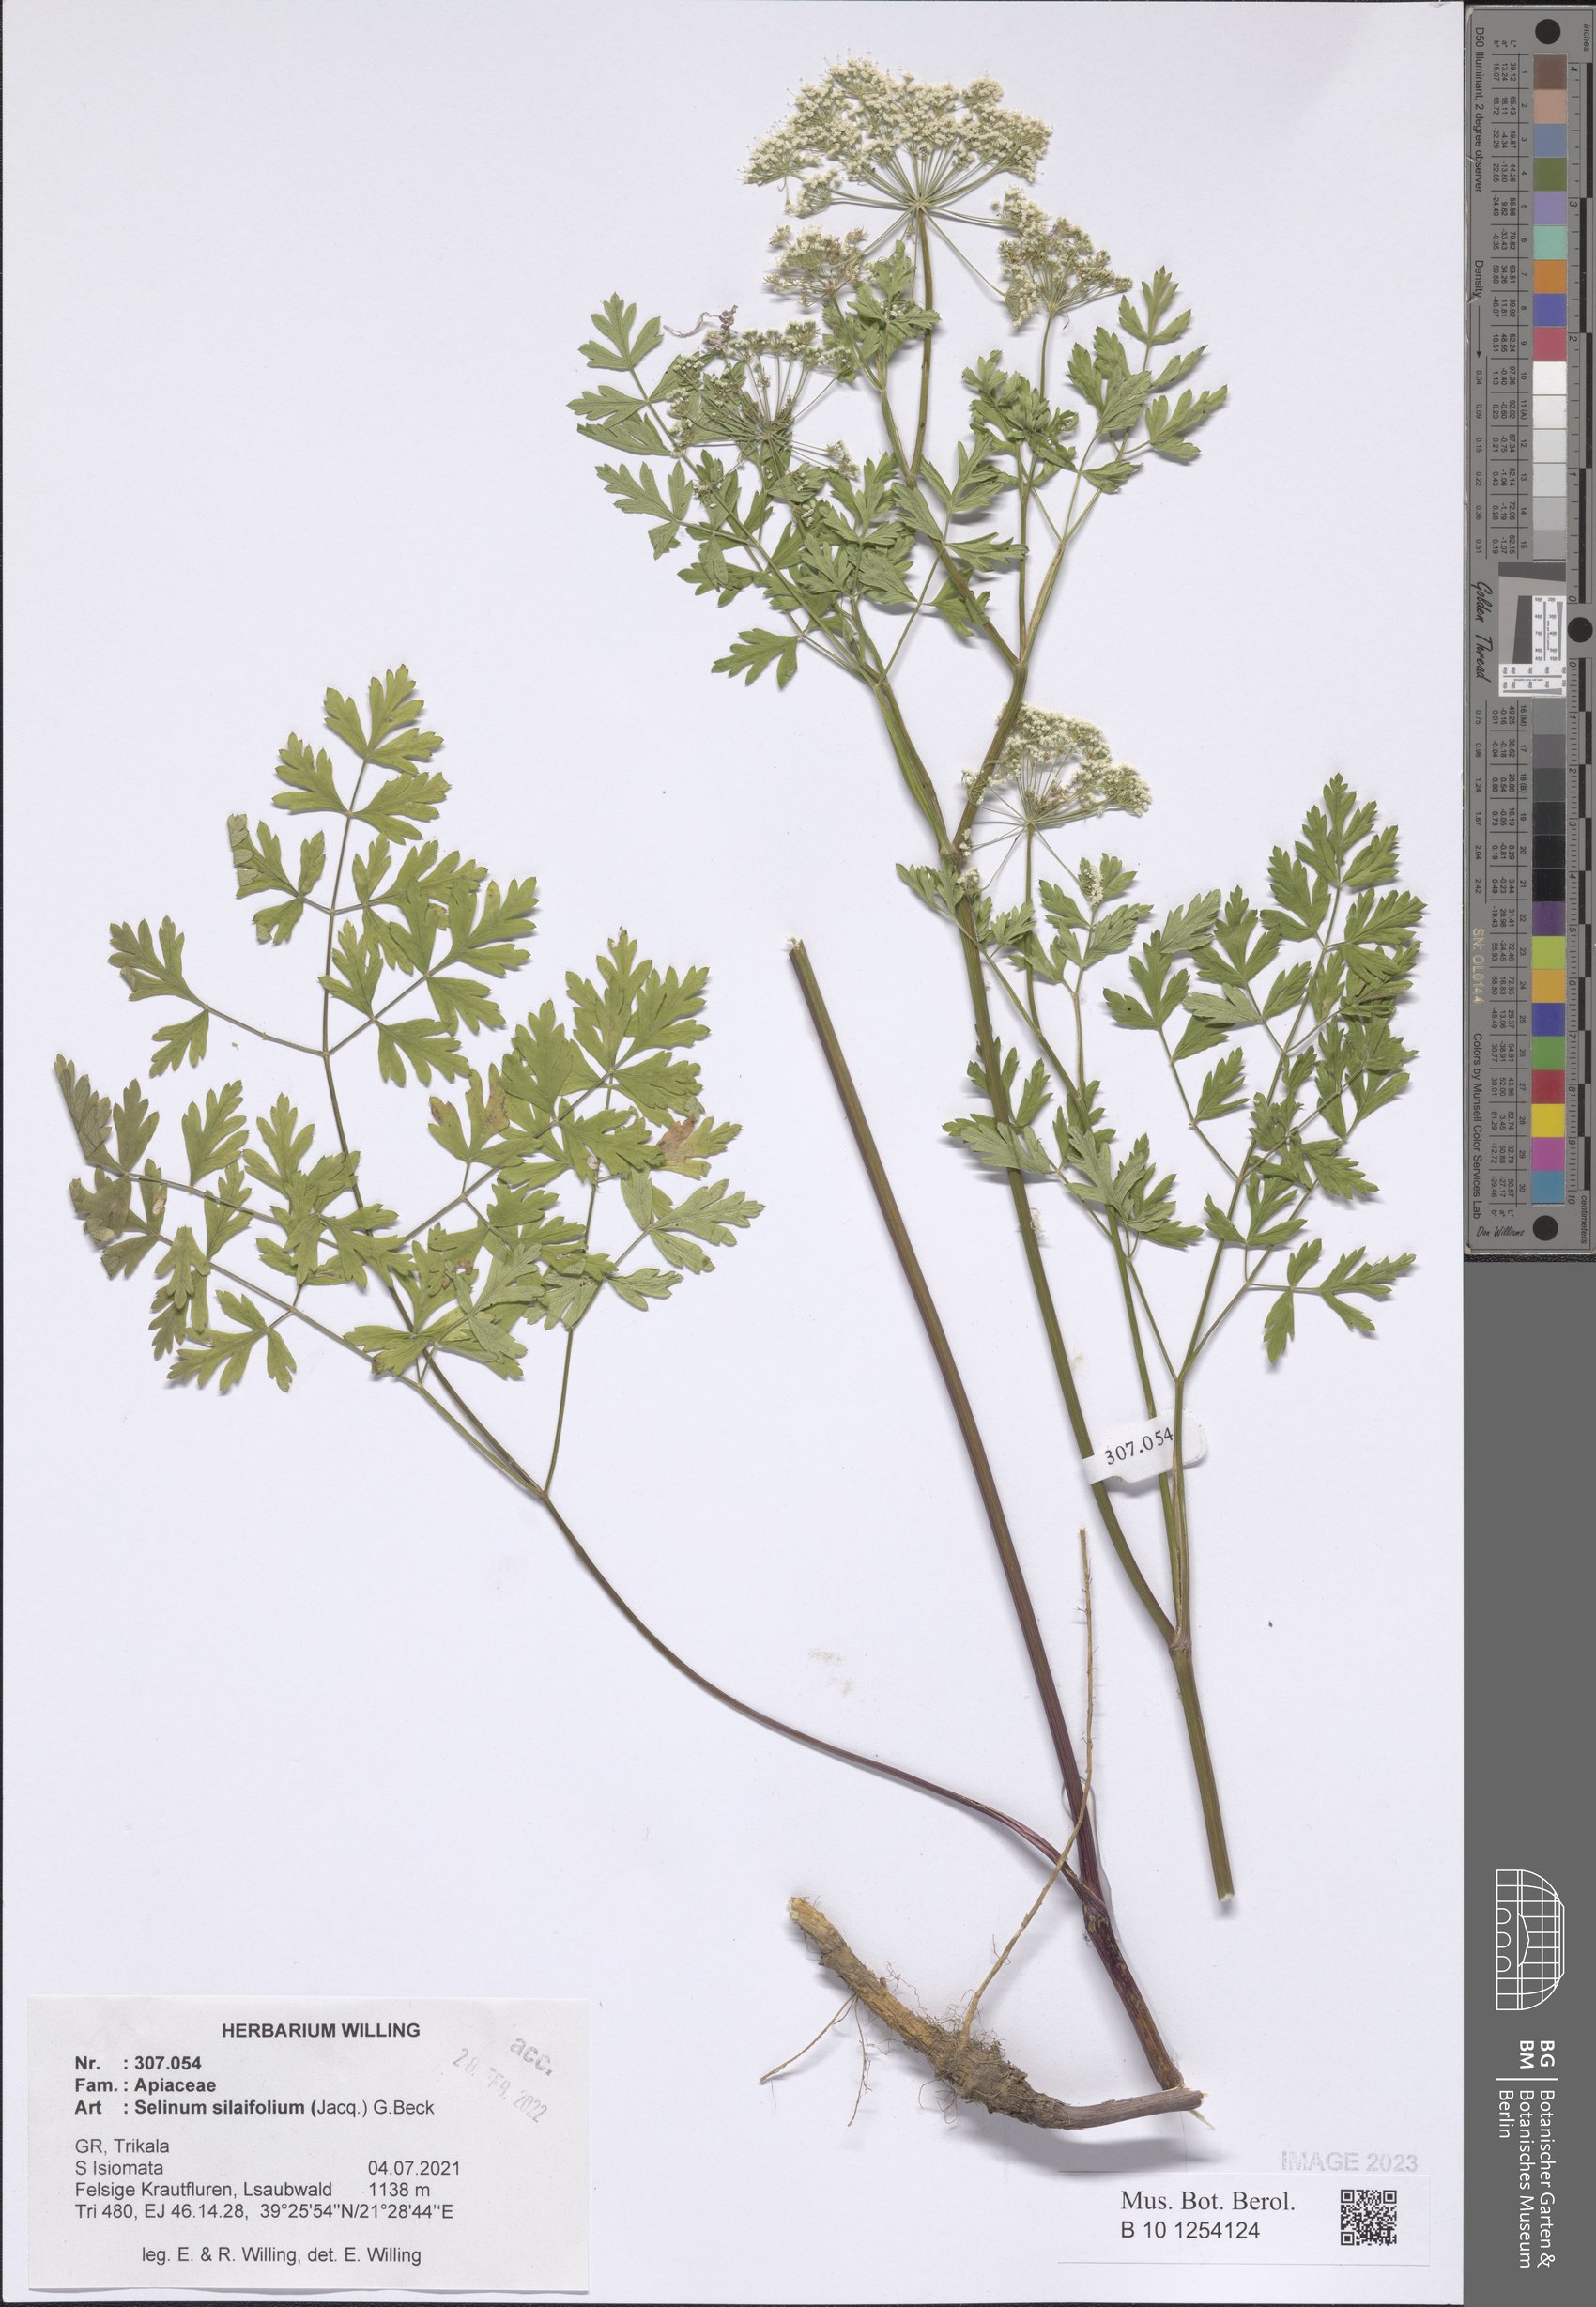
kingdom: Plantae
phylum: Tracheophyta
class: Magnoliopsida
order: Apiales
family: Apiaceae
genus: Katapsuxis
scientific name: Katapsuxis silaifolia
